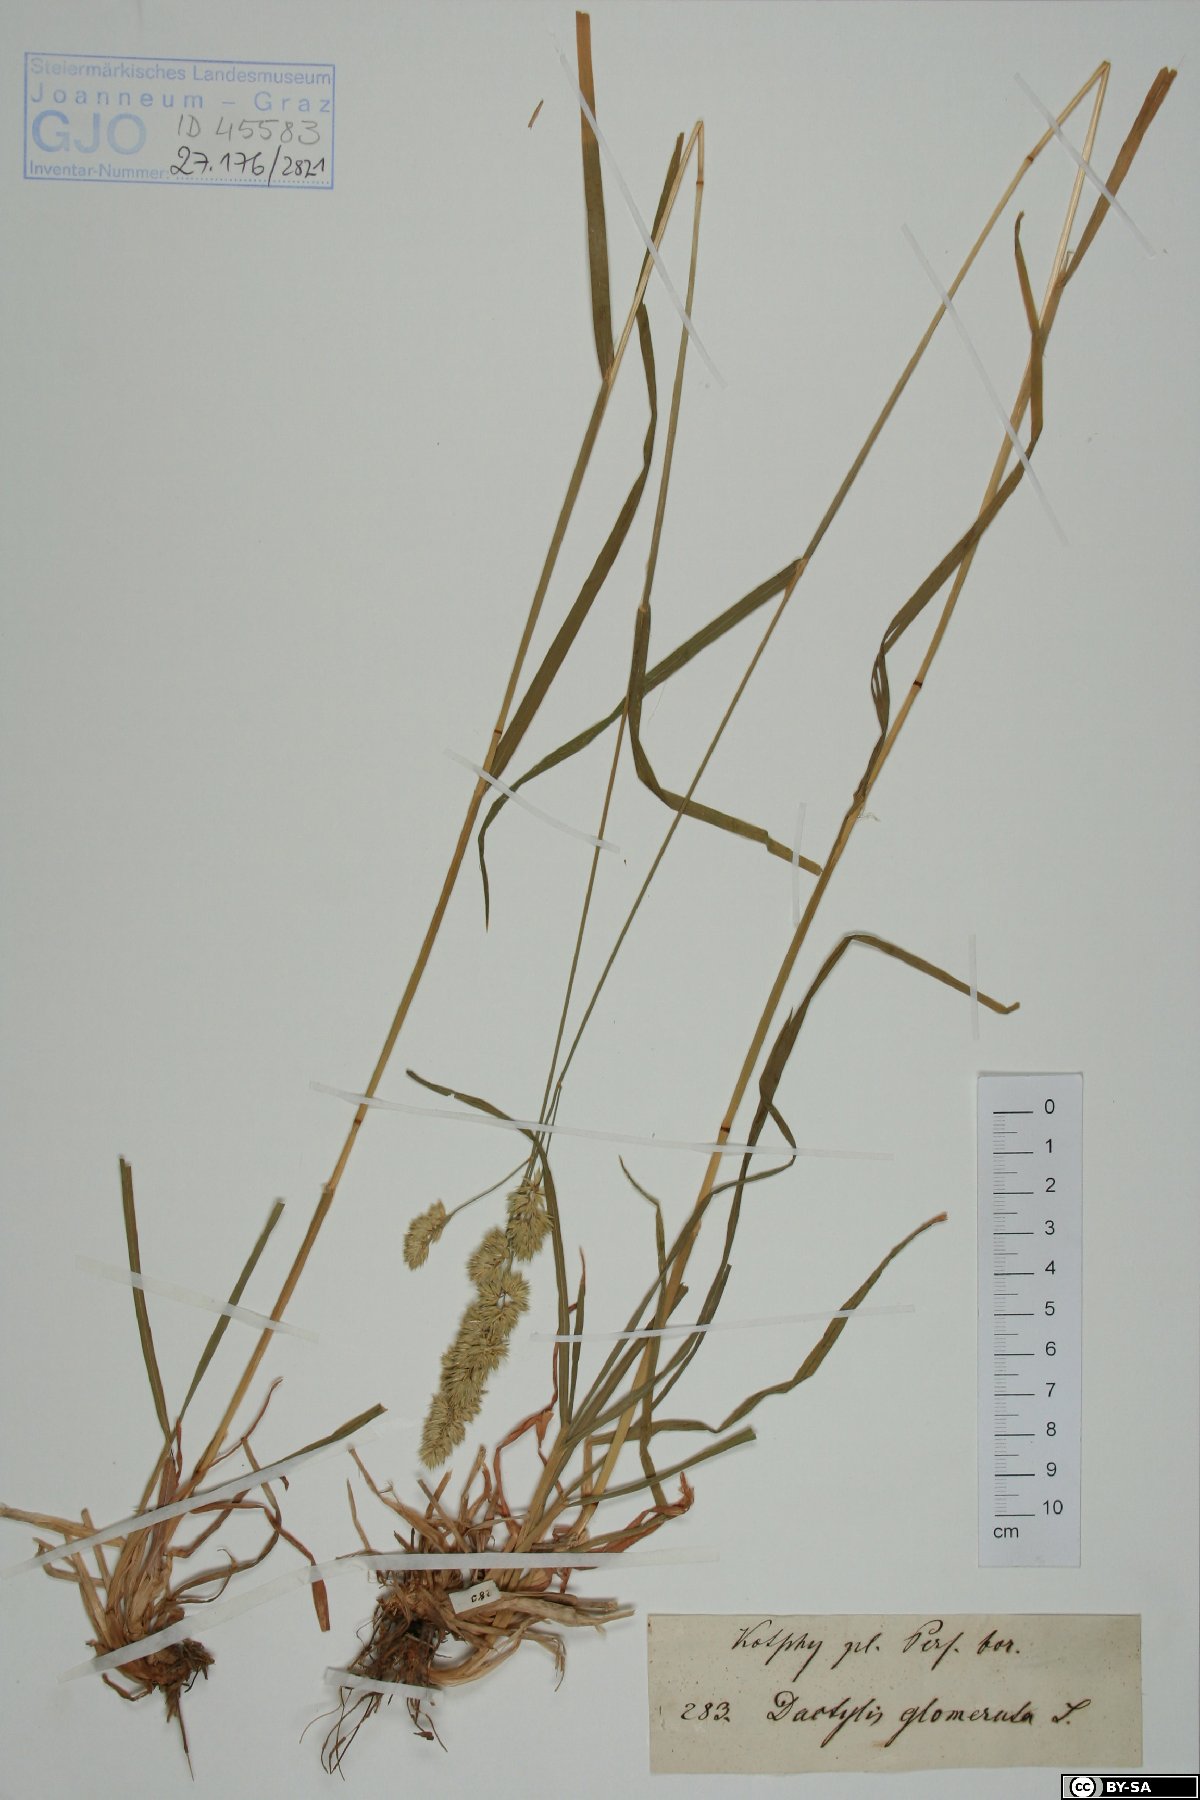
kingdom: Plantae
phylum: Tracheophyta
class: Liliopsida
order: Poales
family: Poaceae
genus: Dactylis
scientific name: Dactylis glomerata
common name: Orchardgrass
